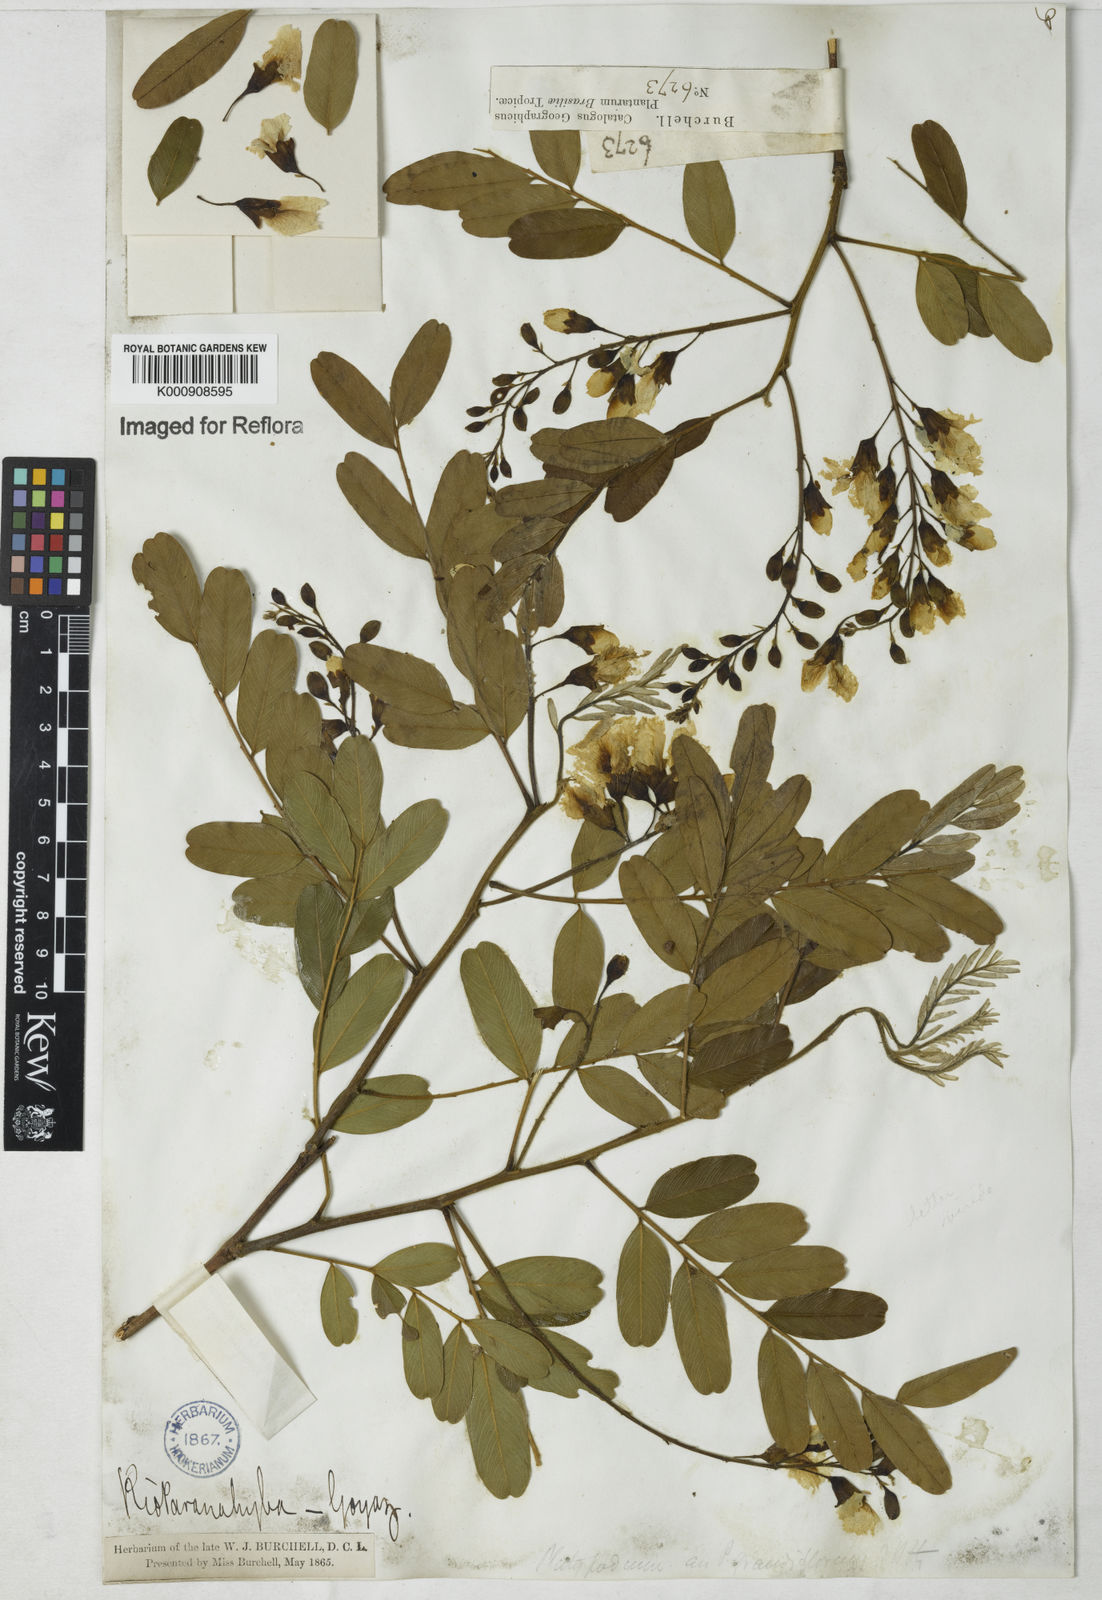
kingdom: Plantae
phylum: Tracheophyta
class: Magnoliopsida
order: Fabales
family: Fabaceae
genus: Platypodium
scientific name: Platypodium elegans
